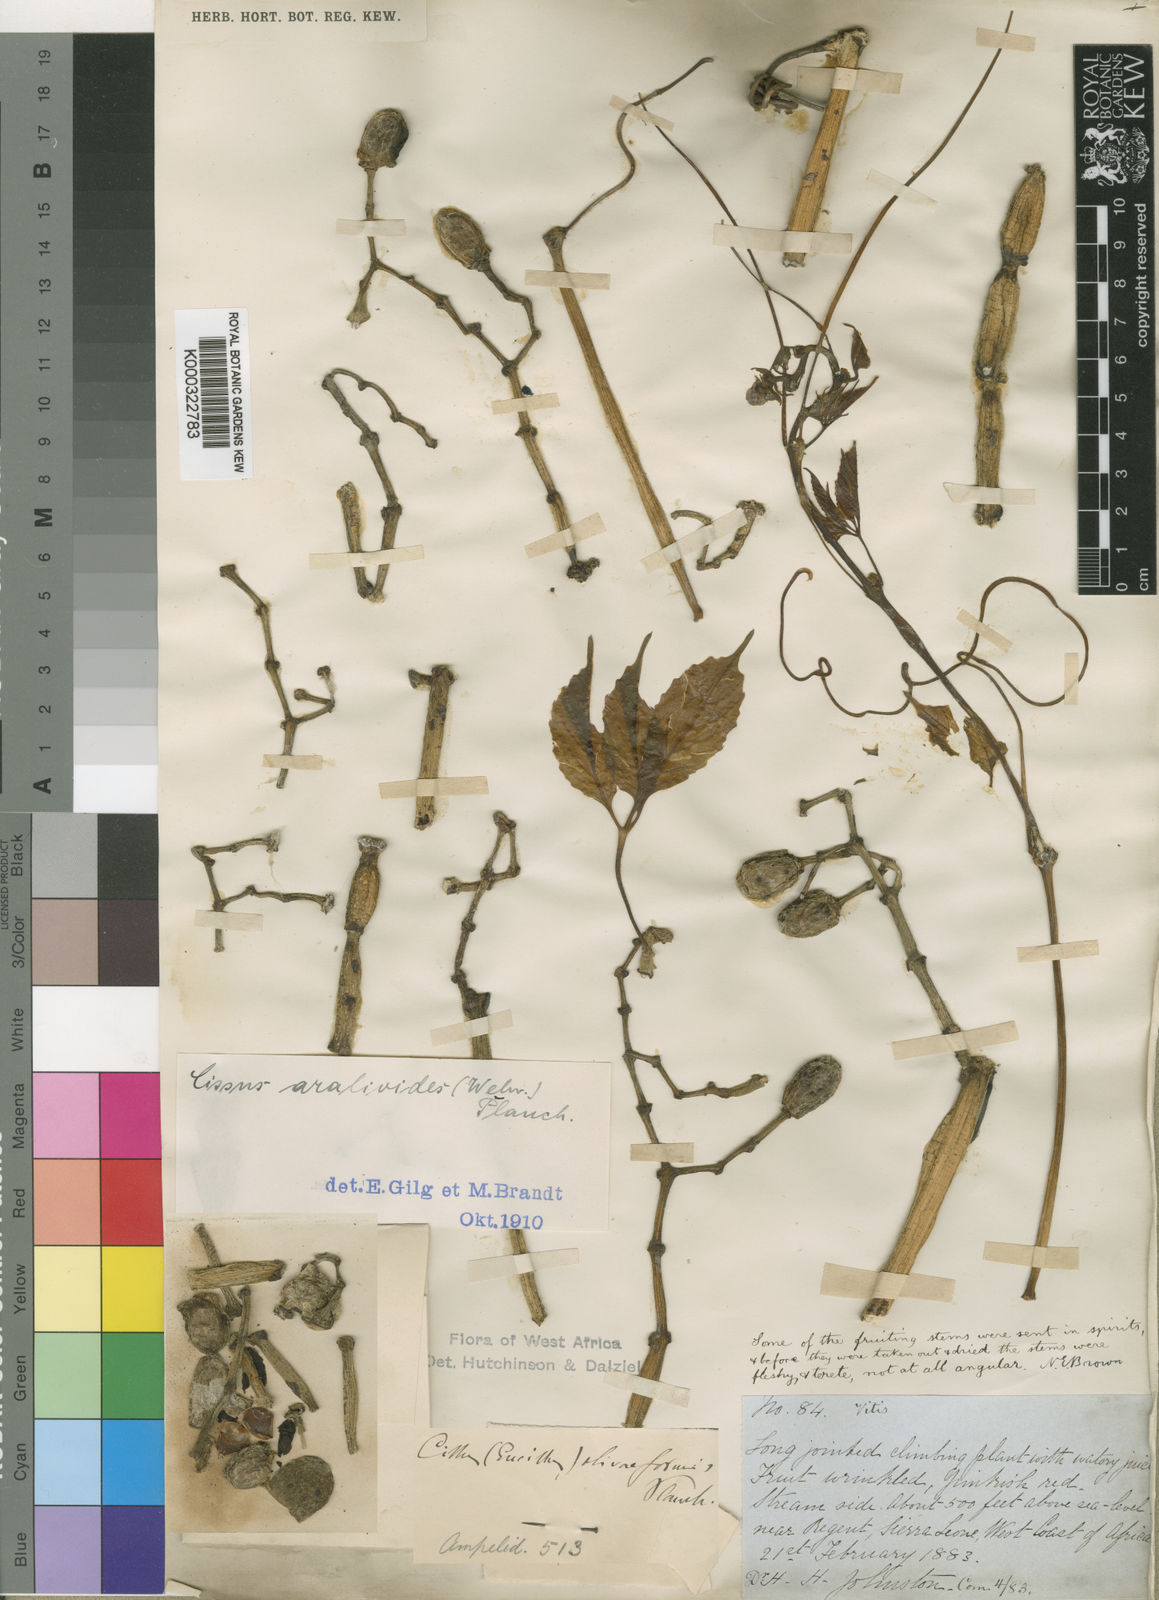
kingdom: Plantae
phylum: Tracheophyta
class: Magnoliopsida
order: Vitales
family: Vitaceae
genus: Cissus
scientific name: Cissus aralioides
